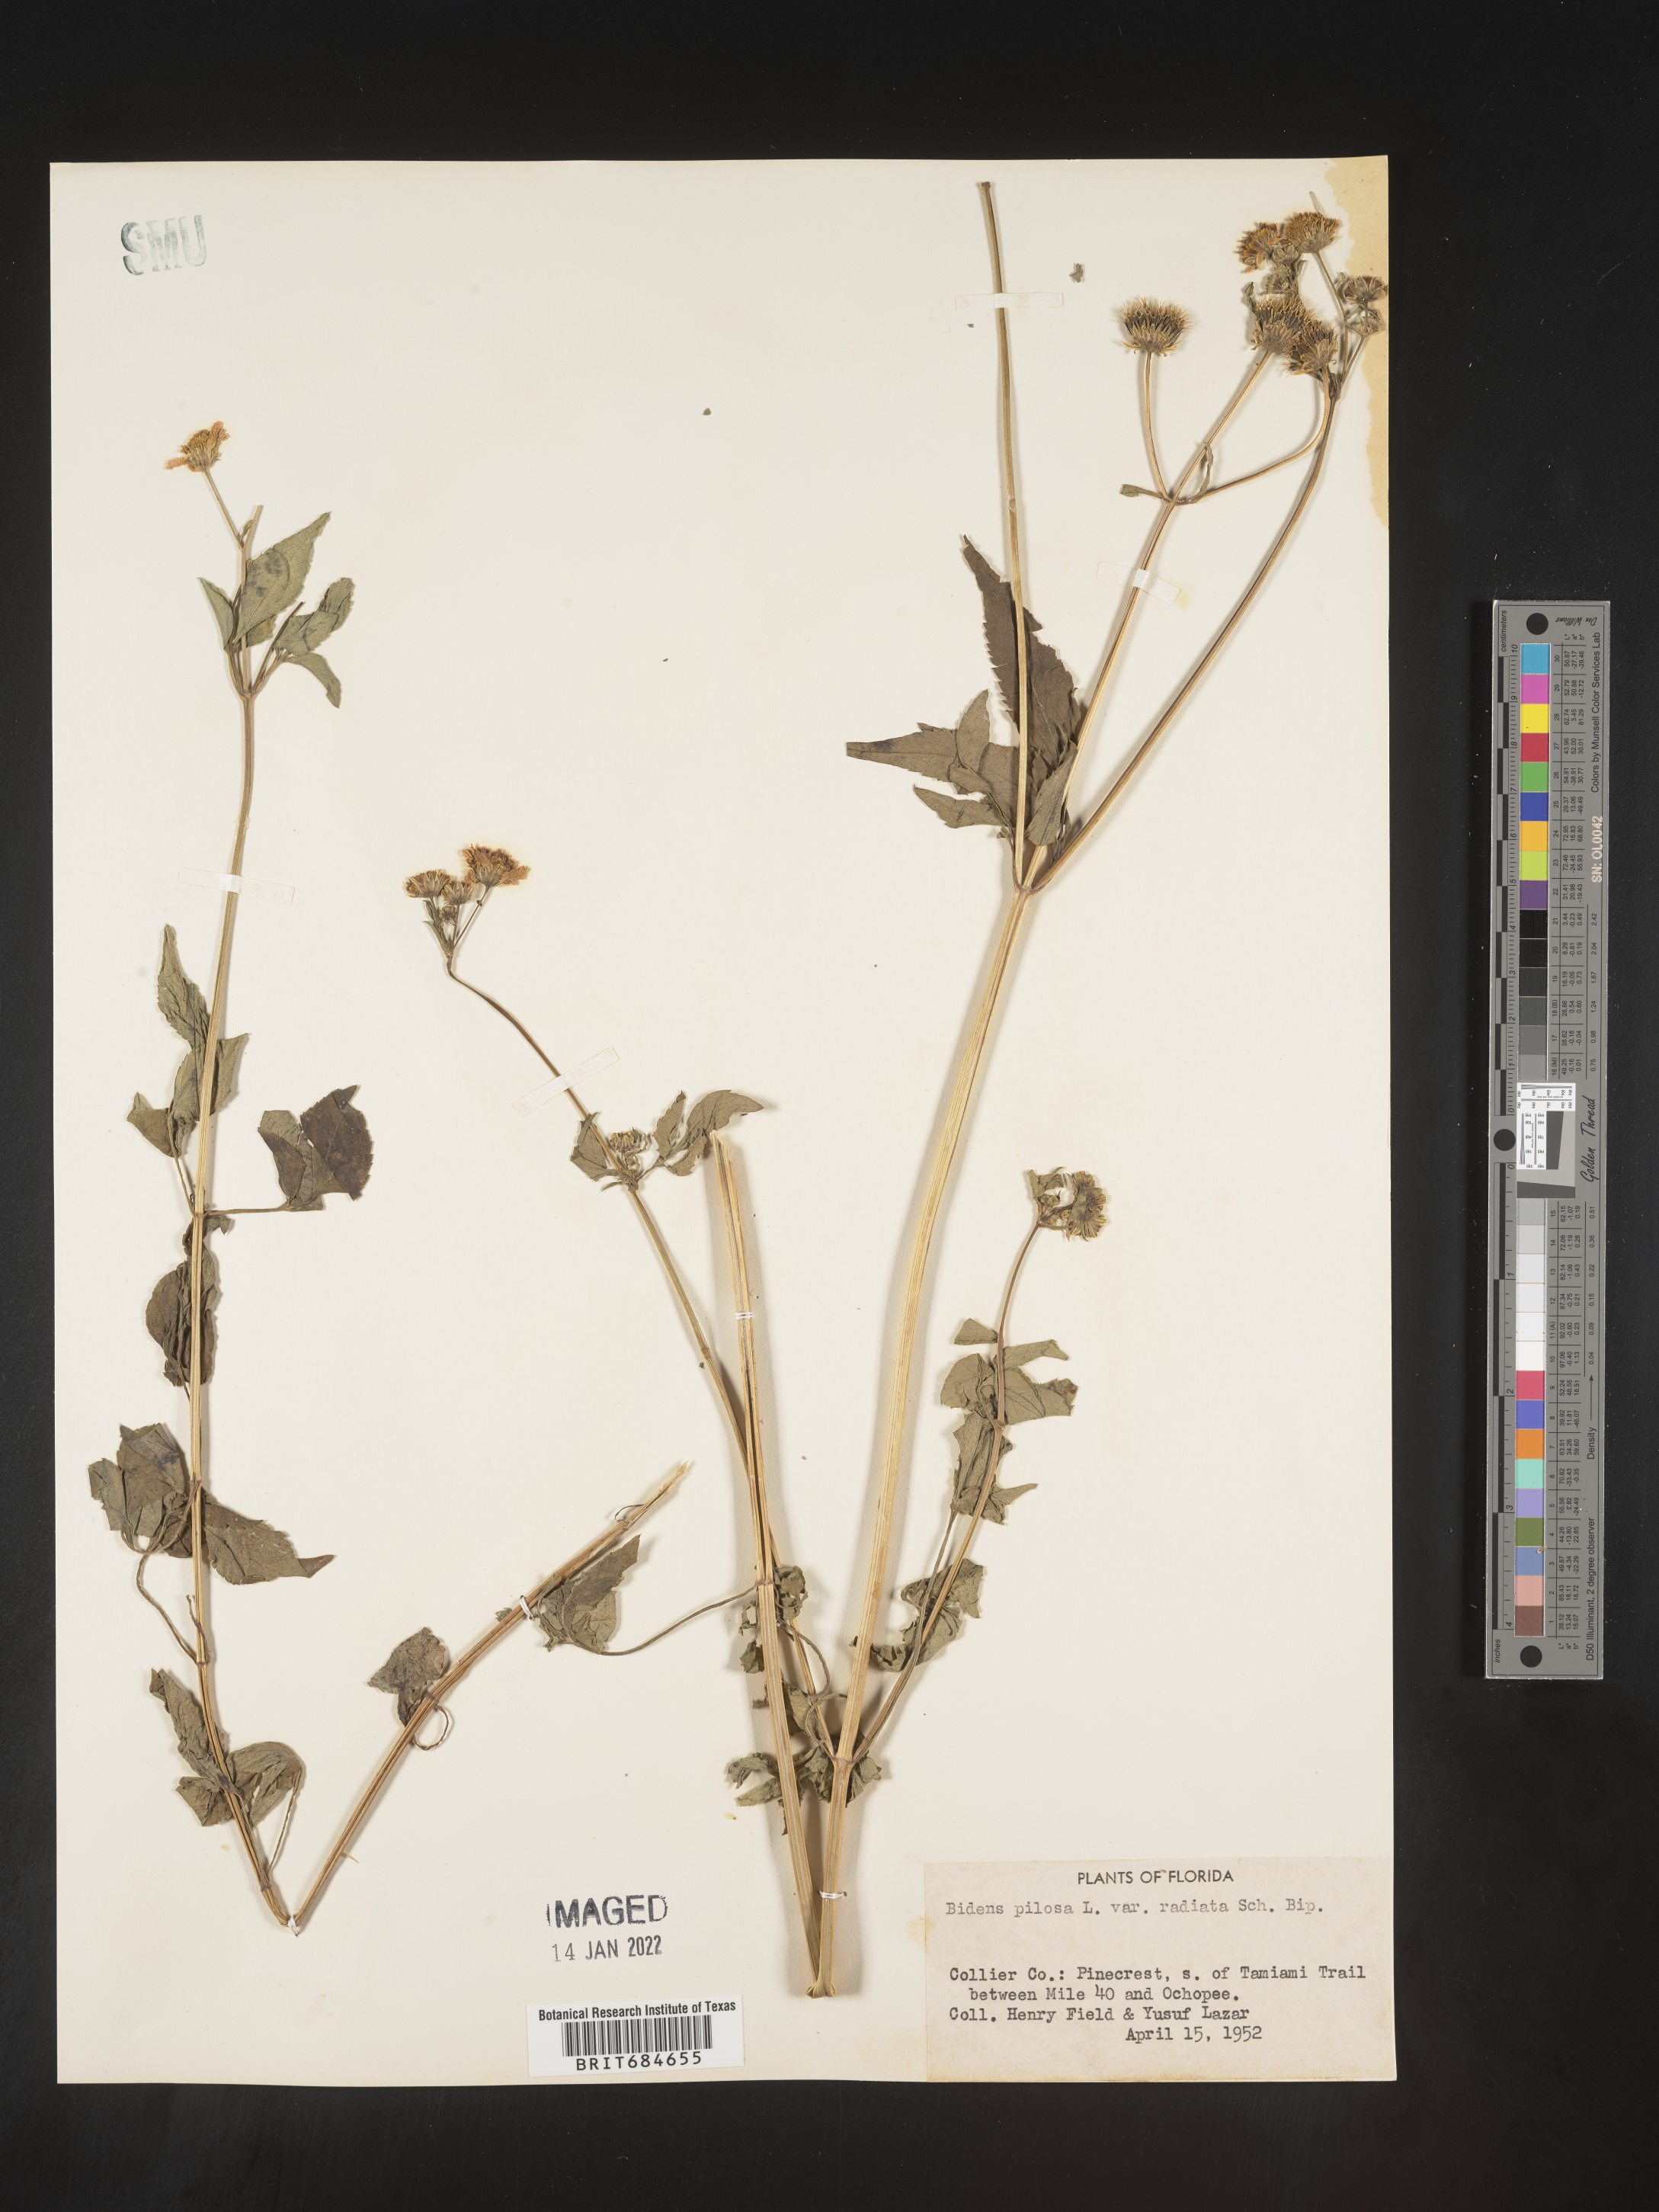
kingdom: Plantae
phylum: Tracheophyta
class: Magnoliopsida
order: Asterales
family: Asteraceae
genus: Bidens
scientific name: Bidens pilosa
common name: Black-jack
